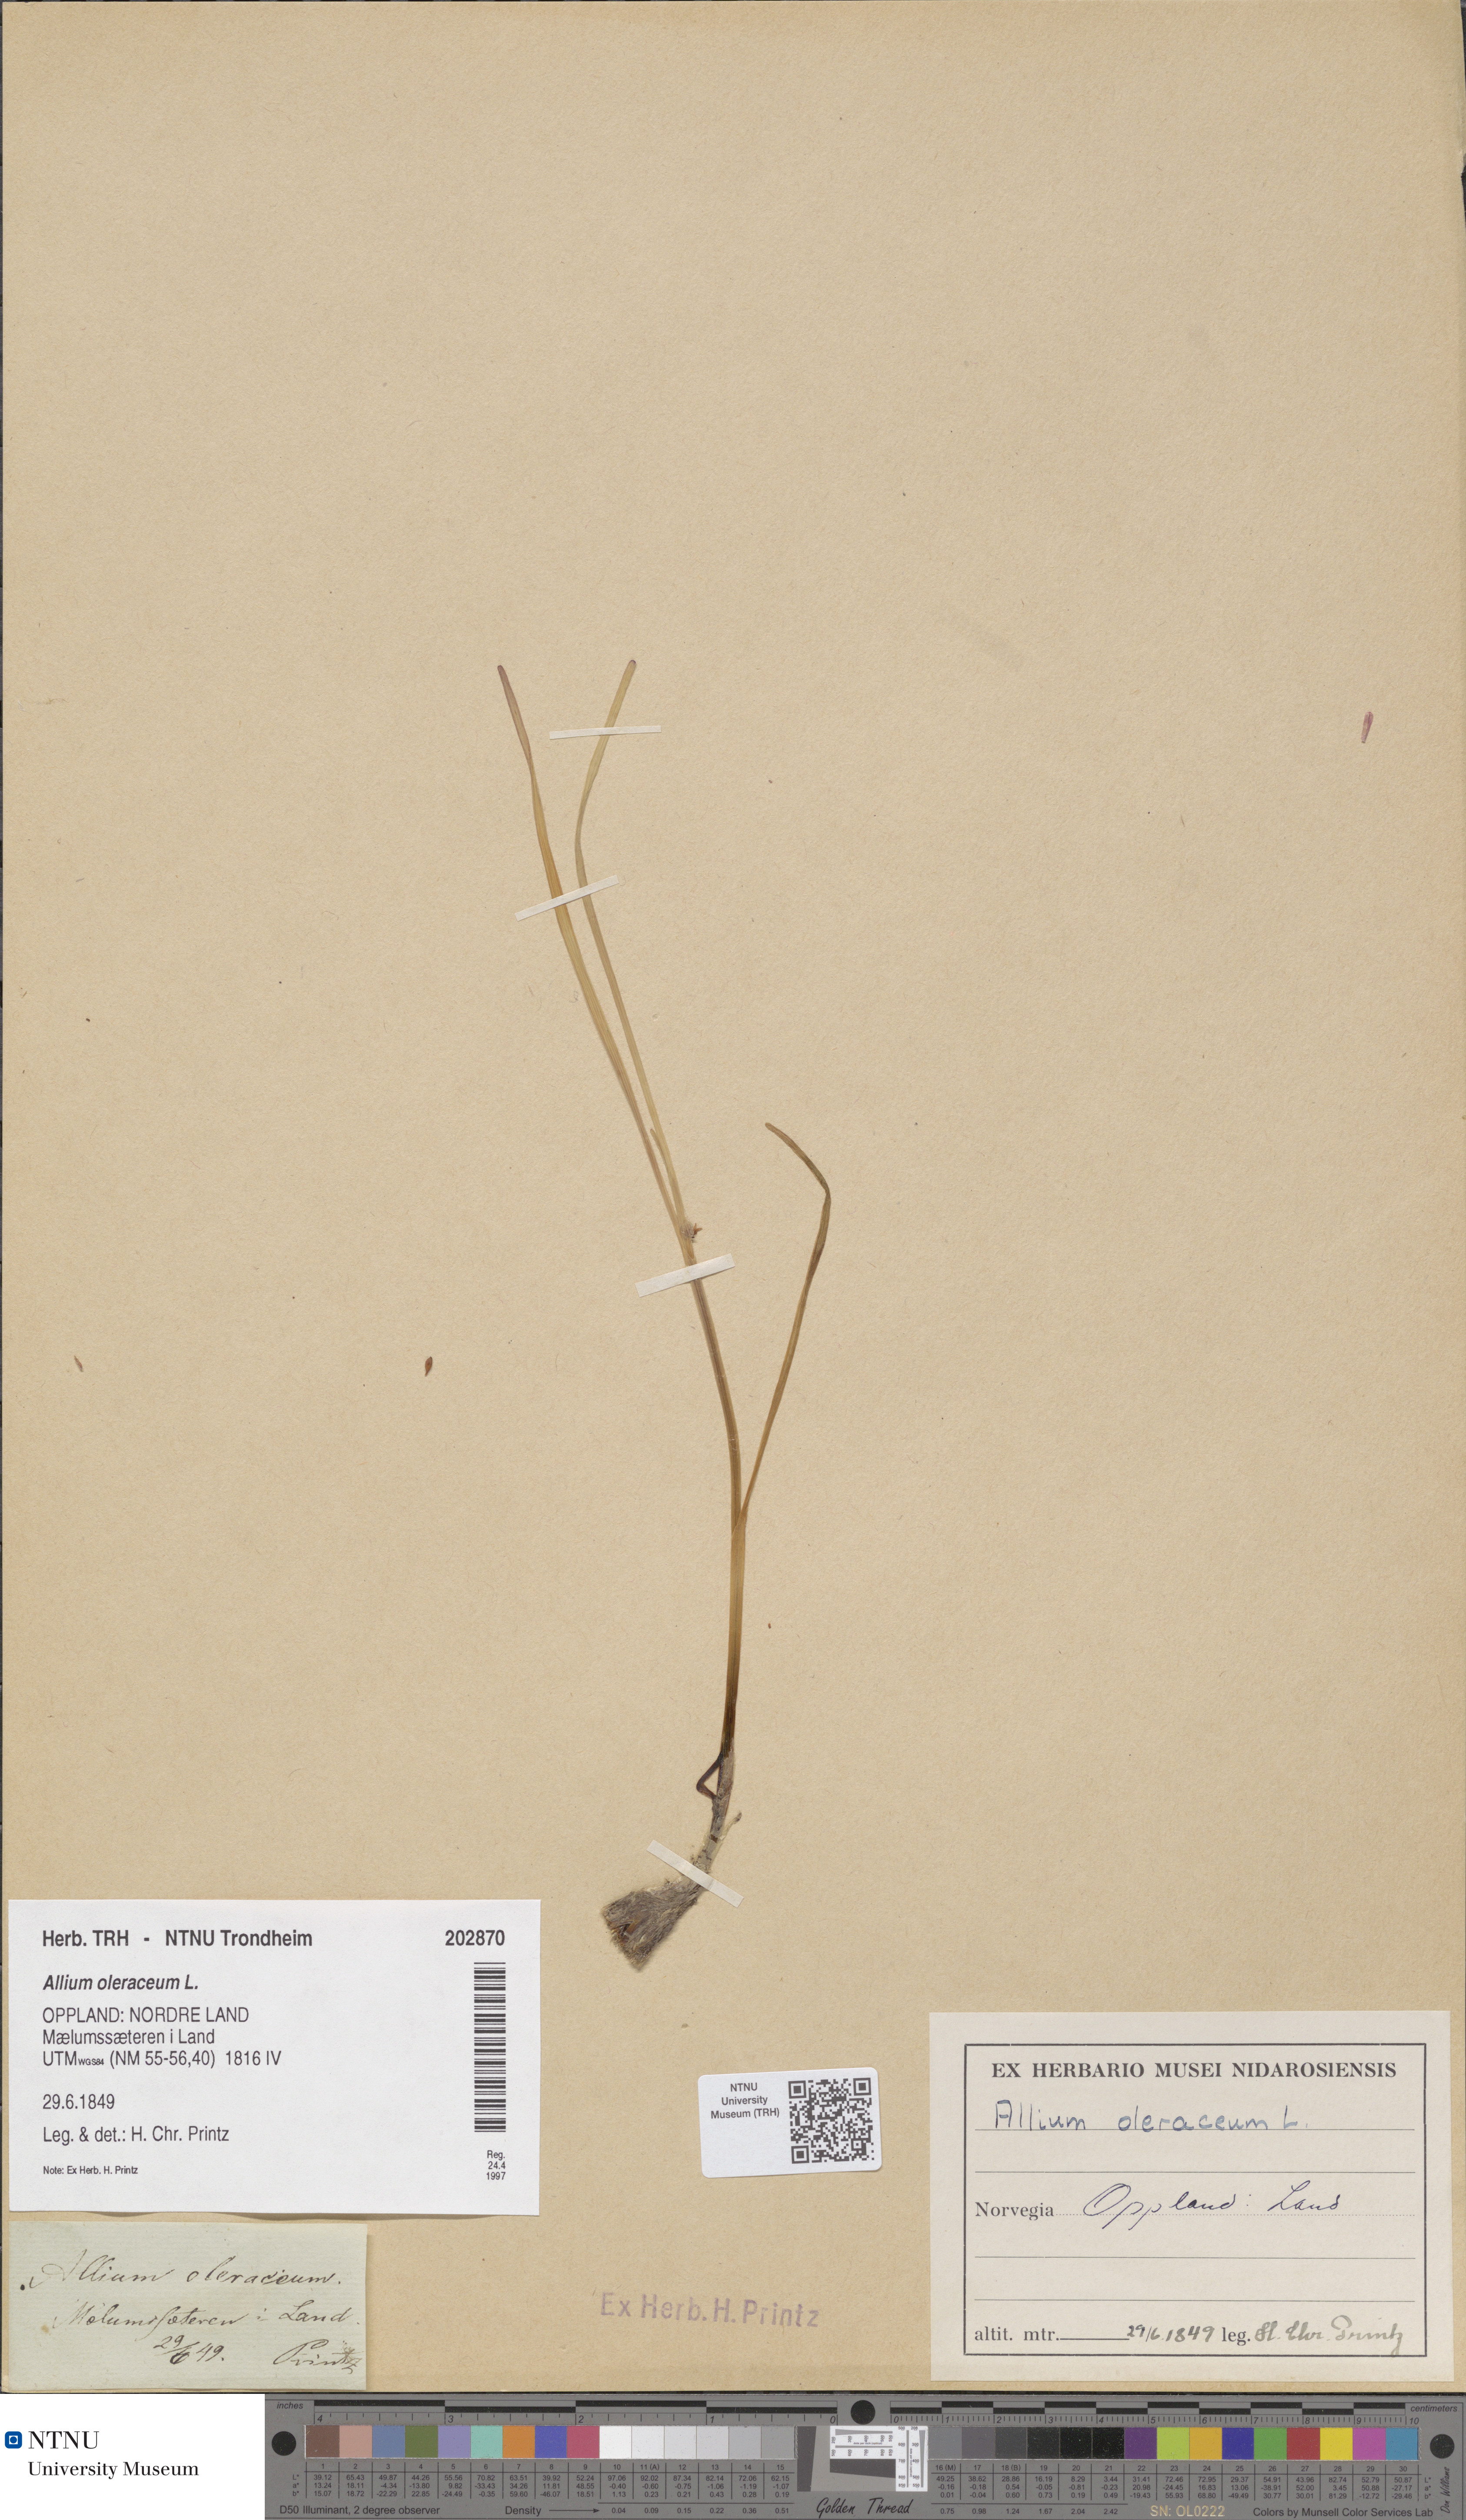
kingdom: Plantae
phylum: Tracheophyta
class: Liliopsida
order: Asparagales
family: Amaryllidaceae
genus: Allium
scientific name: Allium oleraceum
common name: Field garlic
